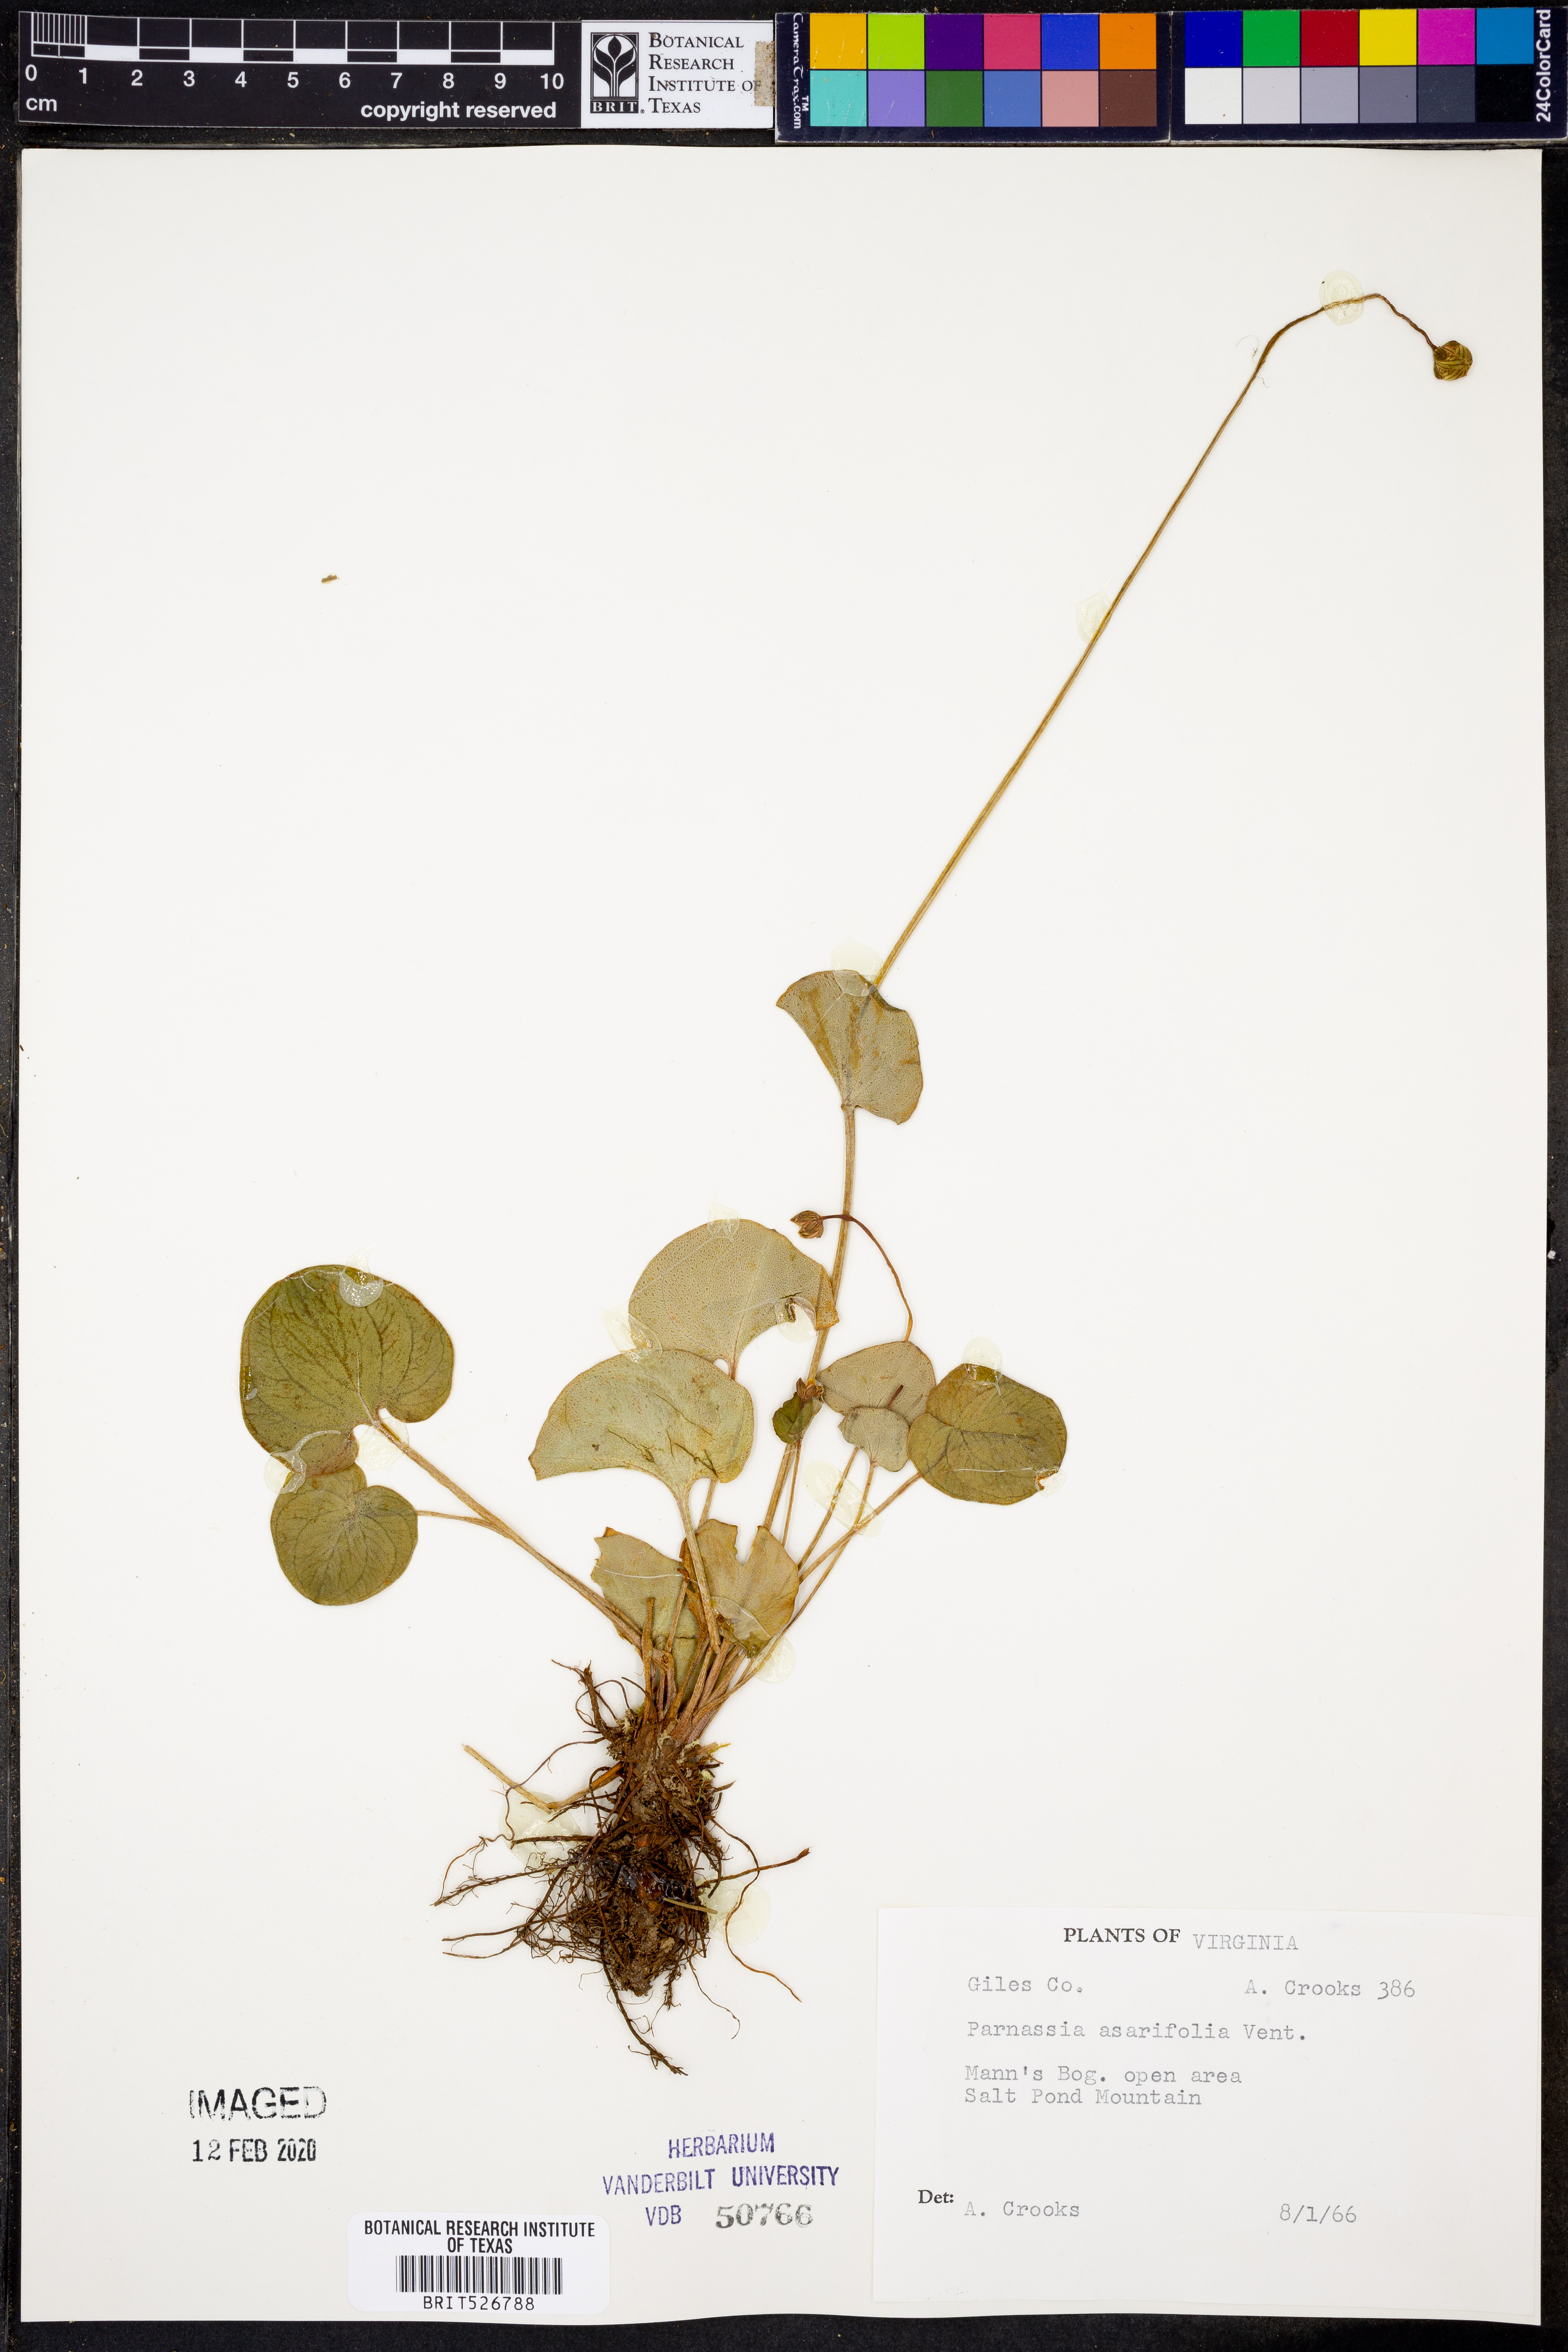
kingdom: Plantae
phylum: Tracheophyta
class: Magnoliopsida
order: Celastrales
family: Parnassiaceae
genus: Parnassia
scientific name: Parnassia asarifolia
